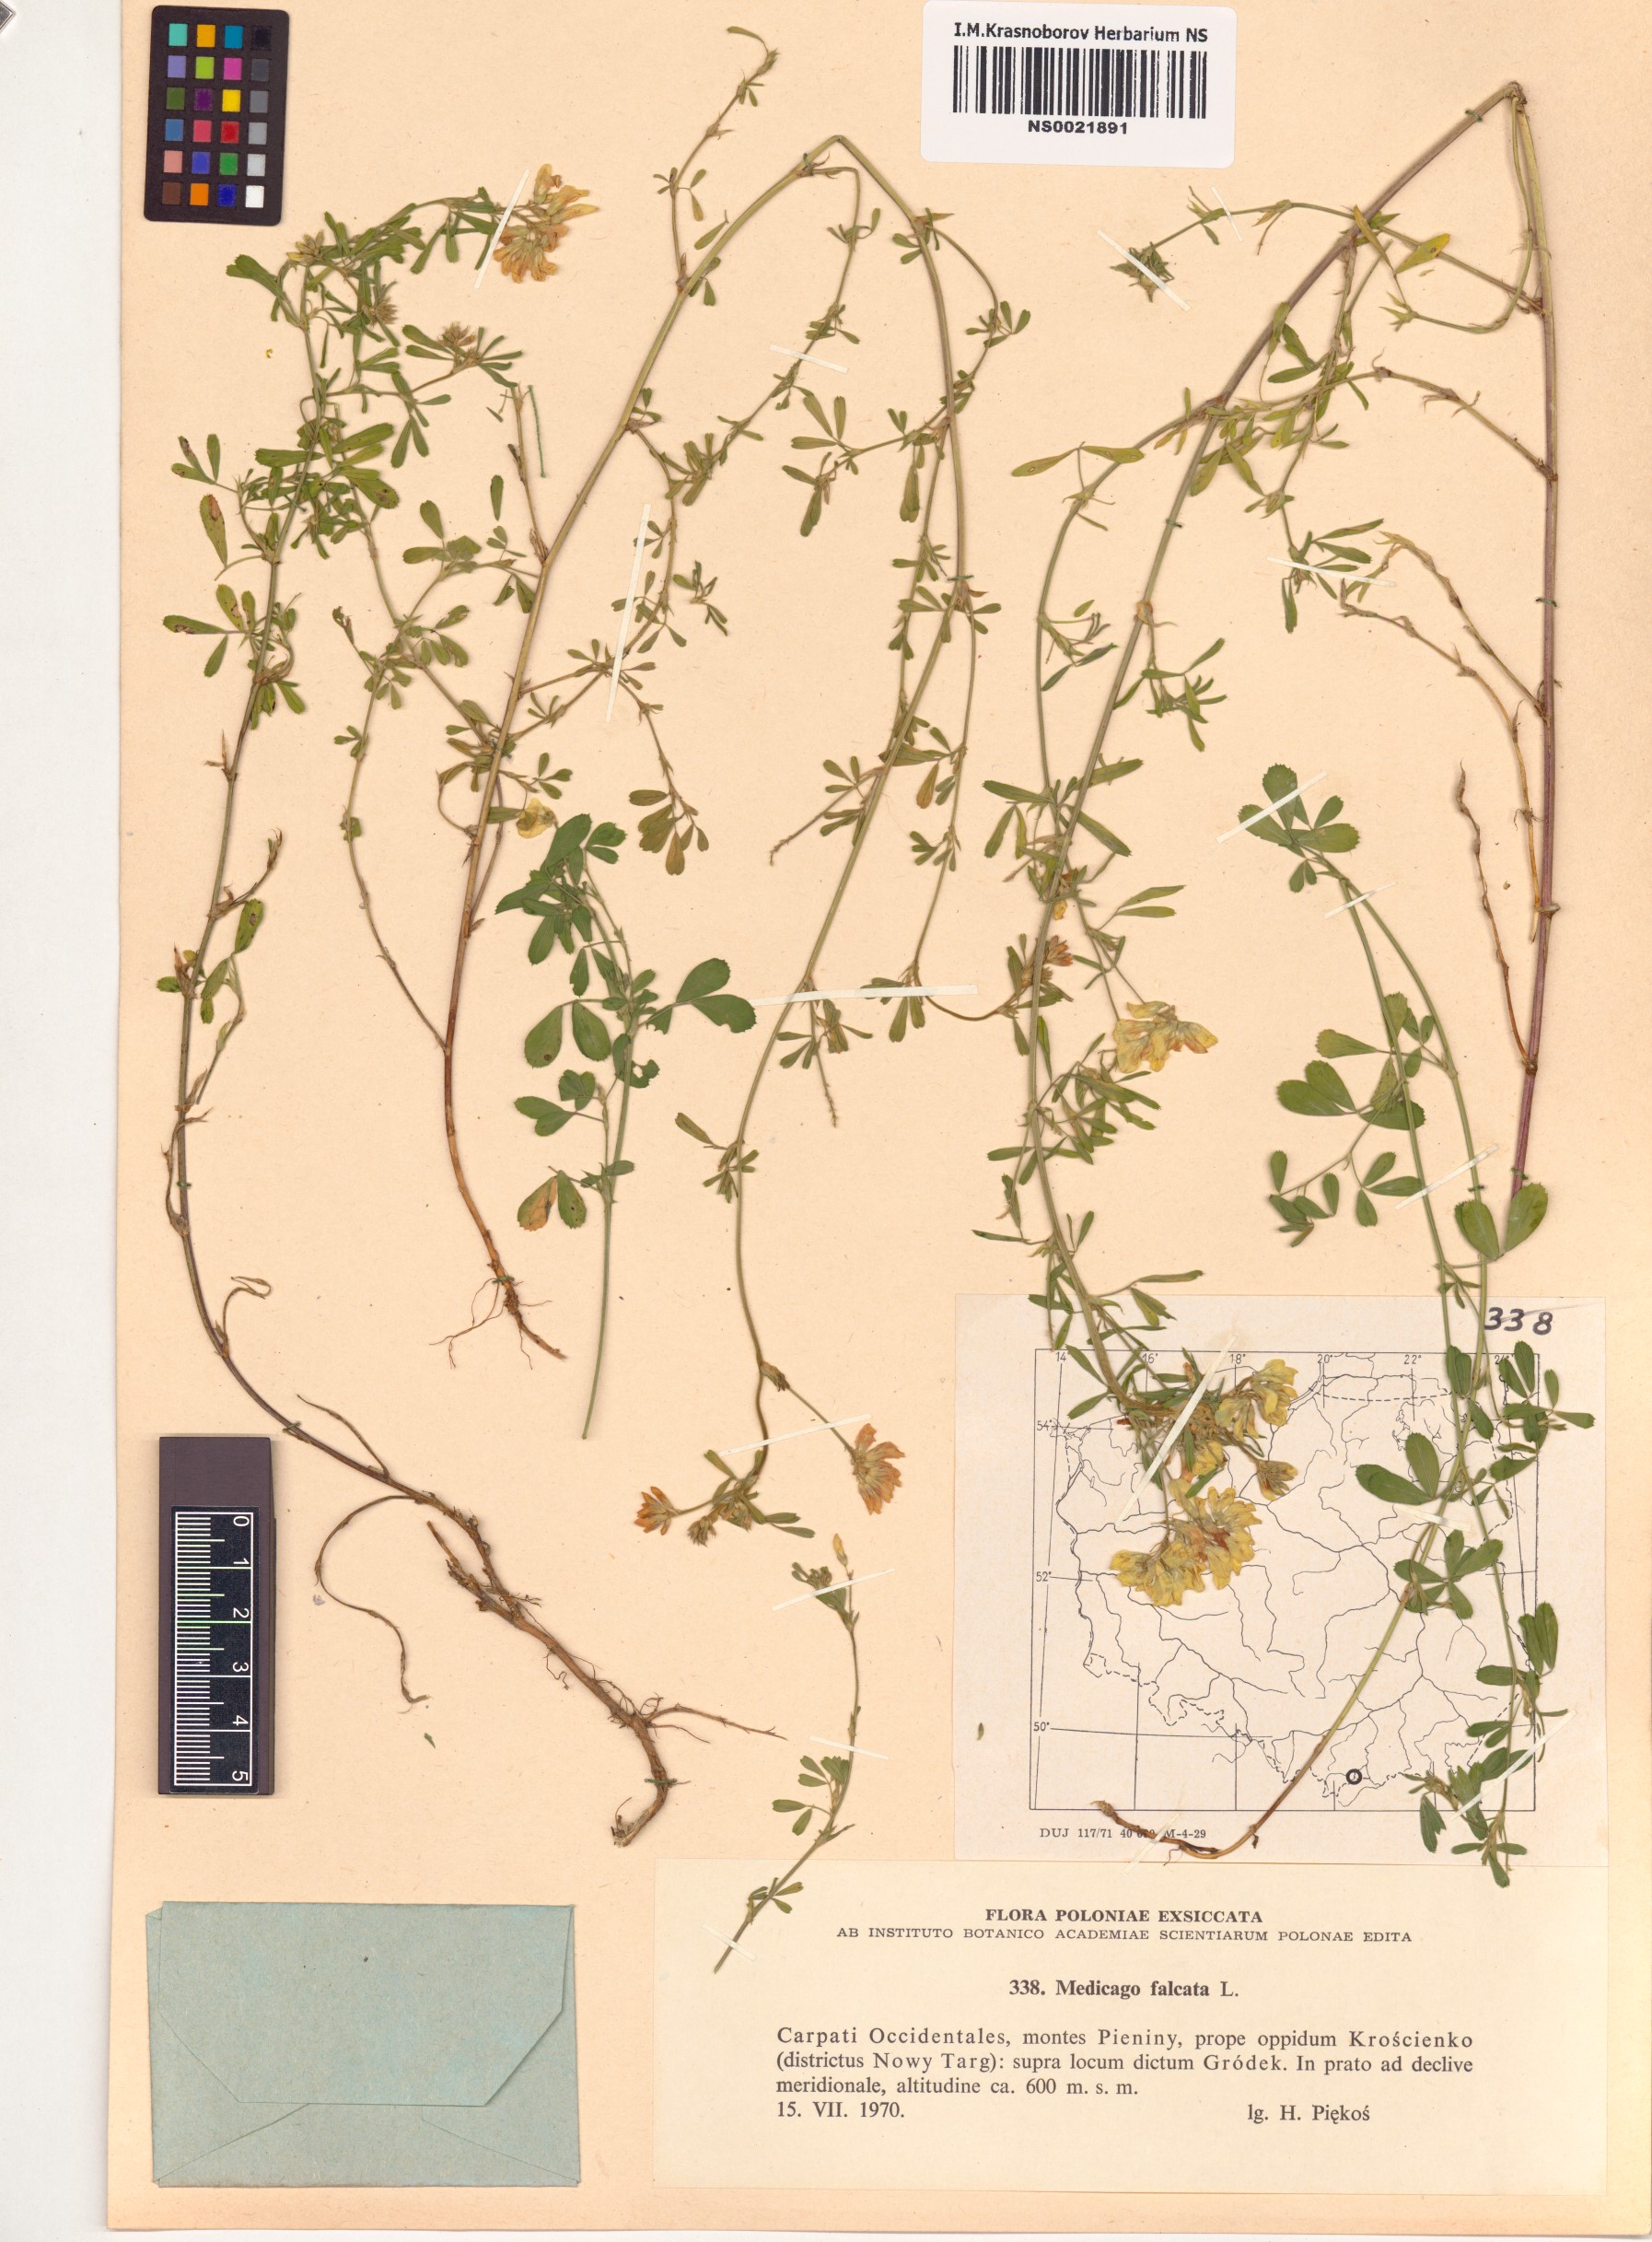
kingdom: Plantae
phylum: Tracheophyta
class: Magnoliopsida
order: Fabales
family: Fabaceae
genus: Medicago
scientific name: Medicago falcata
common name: Sickle medick
